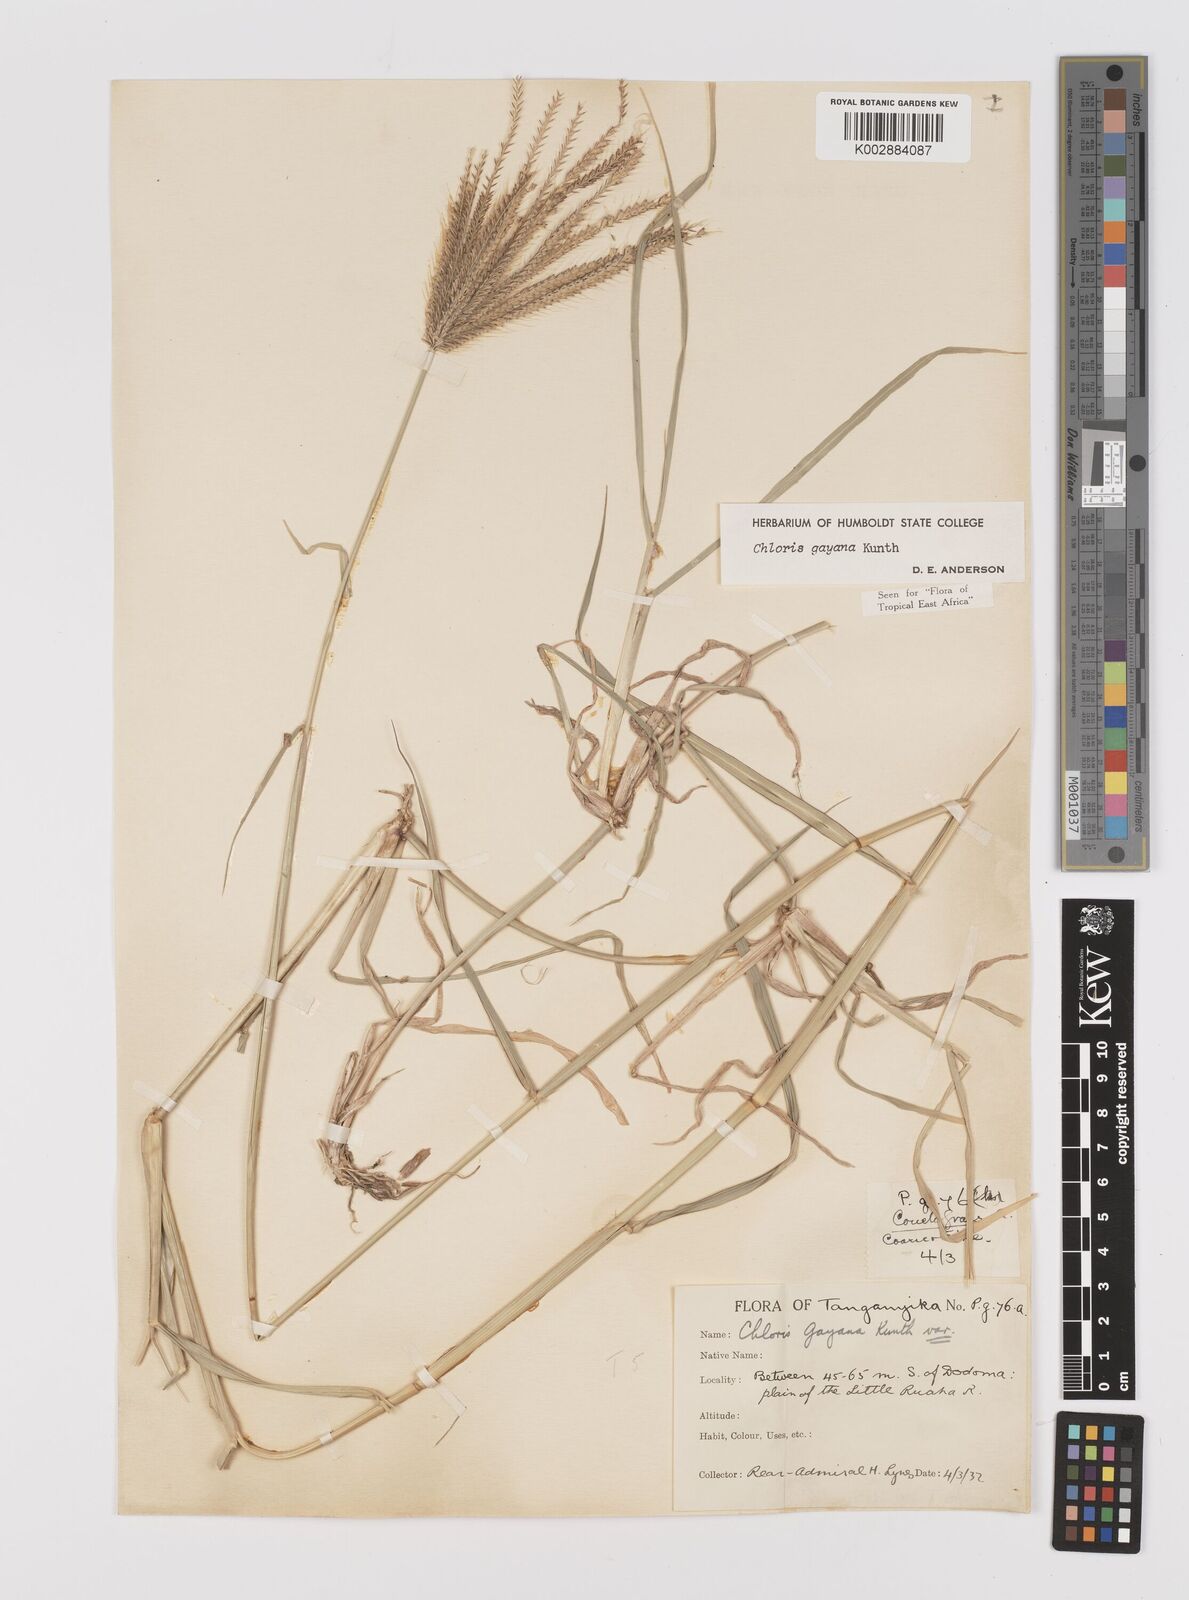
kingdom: Plantae
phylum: Tracheophyta
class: Liliopsida
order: Poales
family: Poaceae
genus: Chloris
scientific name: Chloris gayana
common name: Rhodes grass
